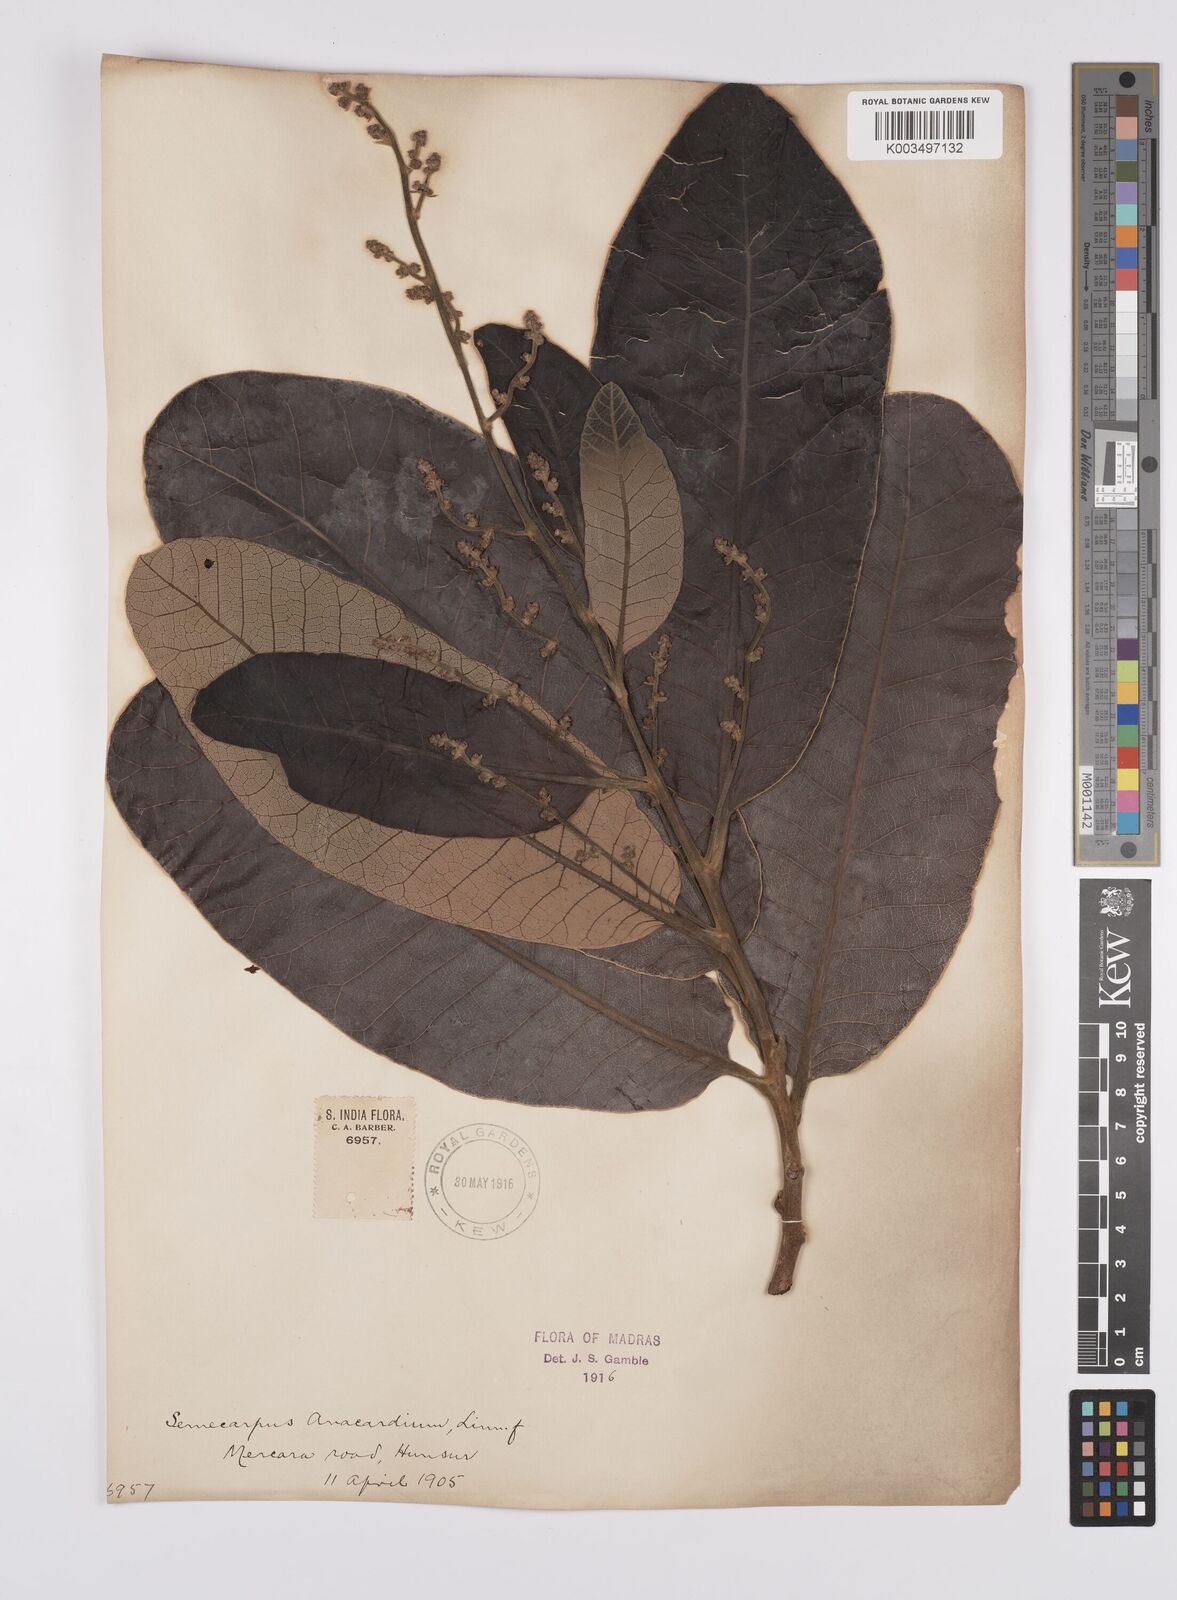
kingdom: Plantae
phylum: Tracheophyta
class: Magnoliopsida
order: Sapindales
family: Anacardiaceae
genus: Semecarpus
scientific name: Semecarpus anacardium
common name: Marking nut-tree
